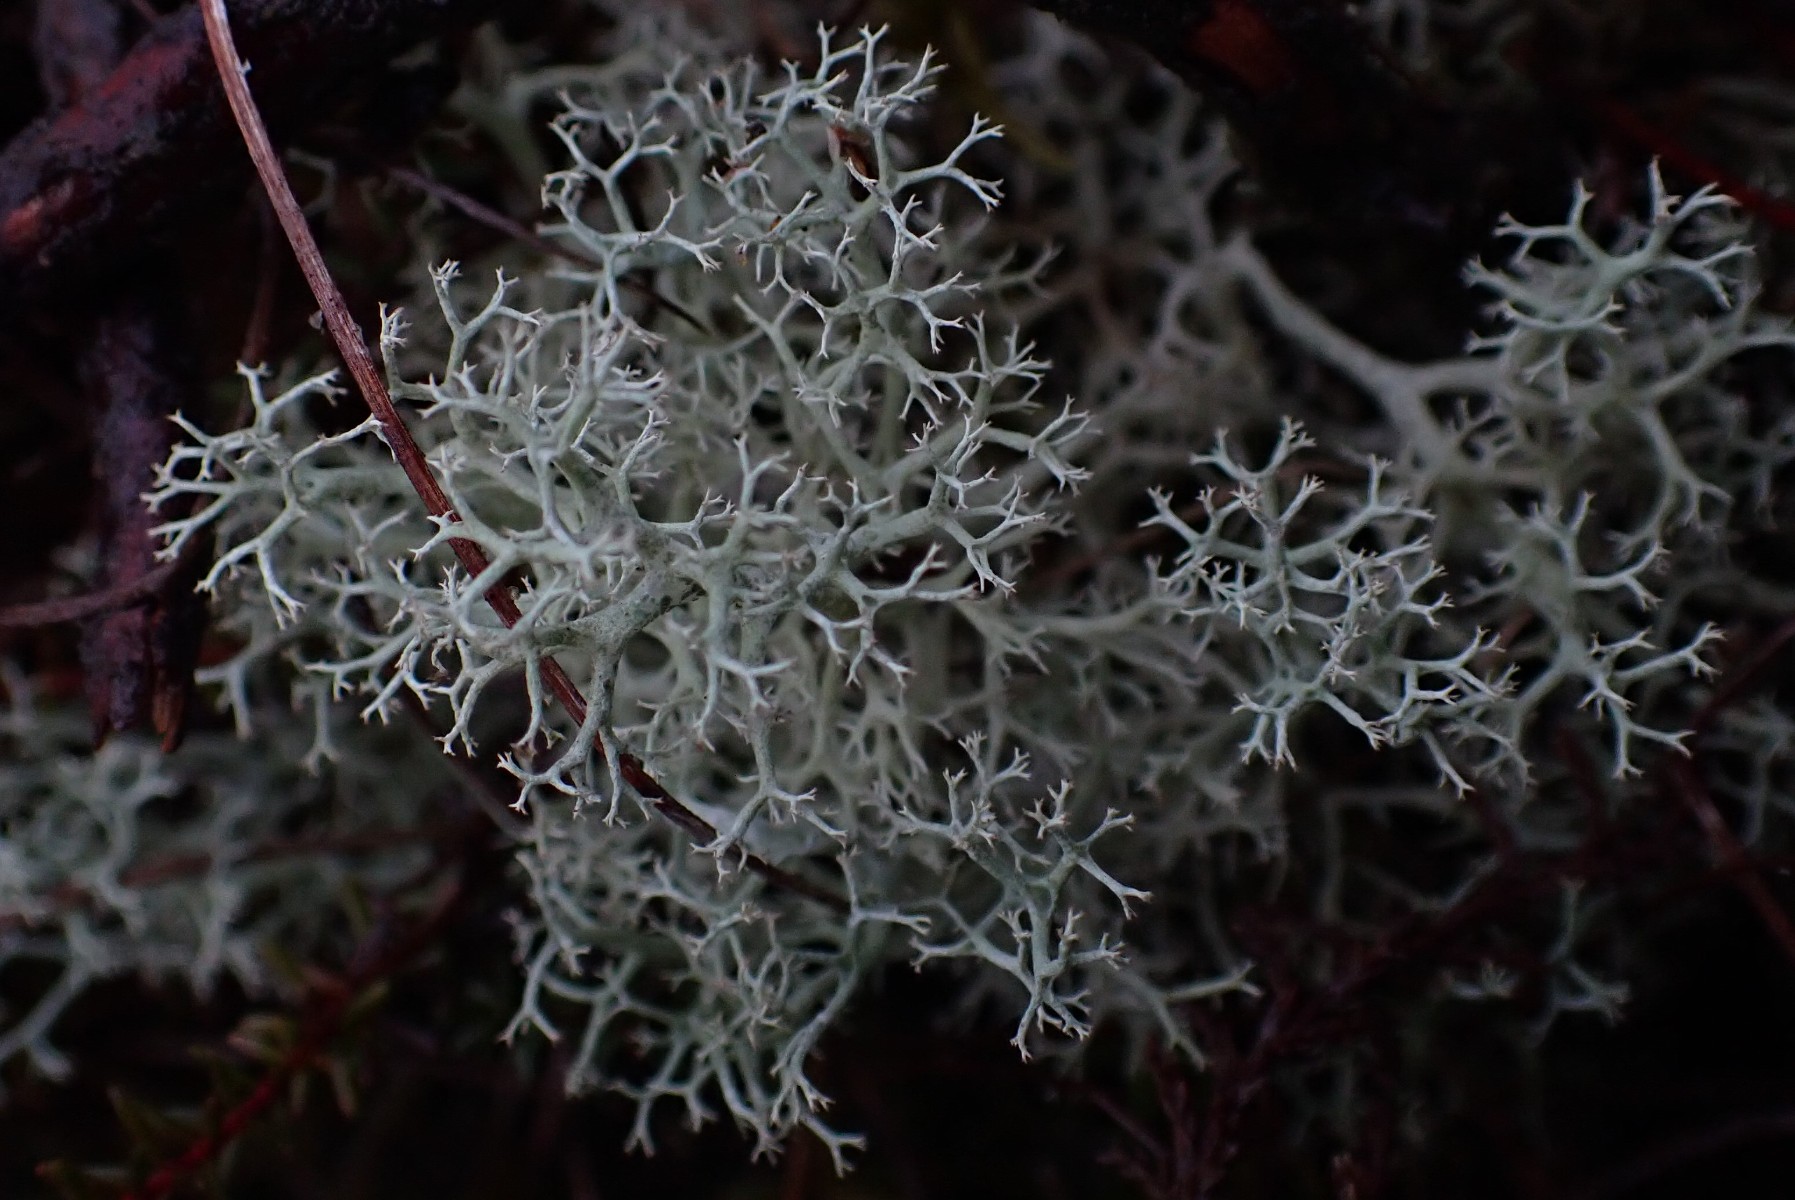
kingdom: Fungi
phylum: Ascomycota
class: Lecanoromycetes
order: Lecanorales
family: Cladoniaceae
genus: Cladonia
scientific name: Cladonia portentosa
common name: hede-rensdyrlav
